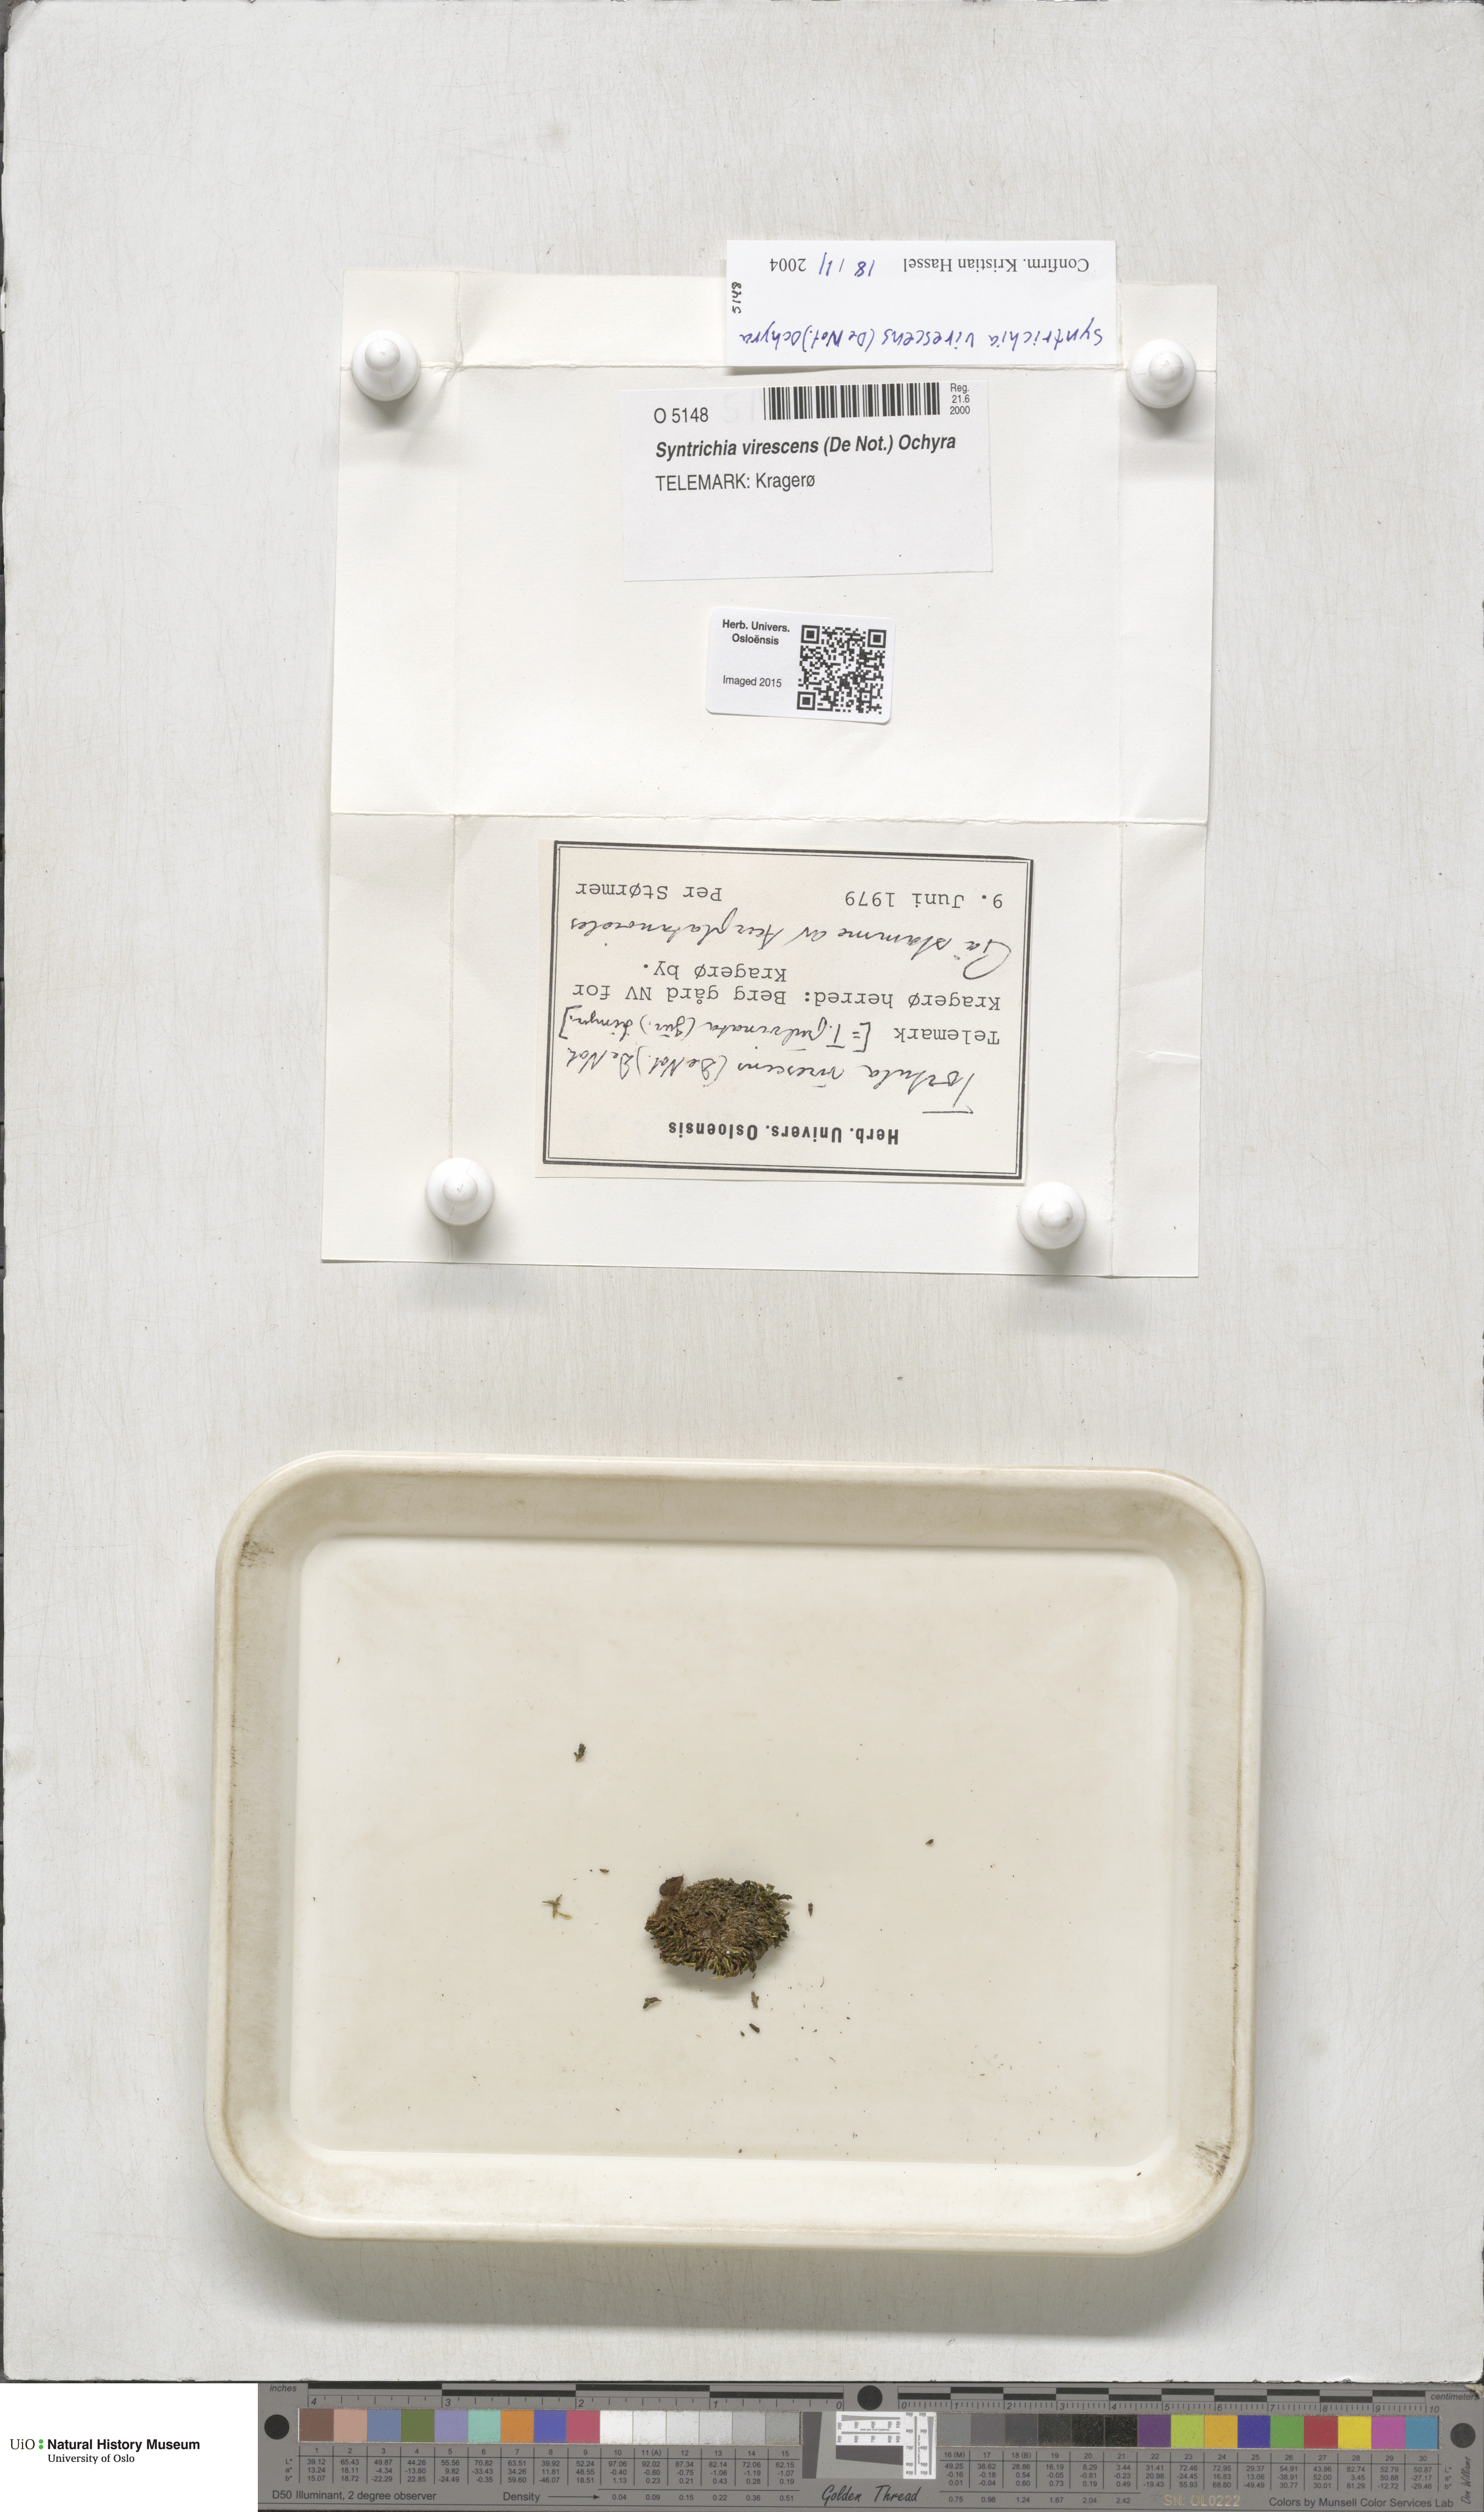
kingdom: Plantae
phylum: Bryophyta
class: Bryopsida
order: Pottiales
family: Pottiaceae
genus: Syntrichia
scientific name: Syntrichia virescens
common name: Lesser screw-moss
